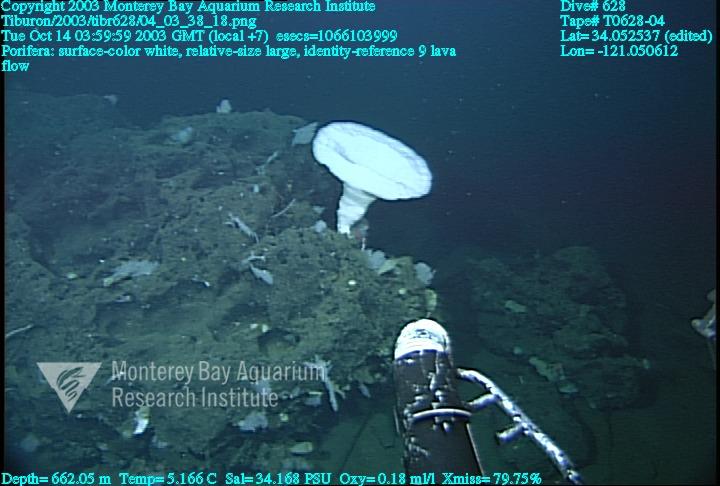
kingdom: Animalia
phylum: Porifera
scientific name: Porifera
